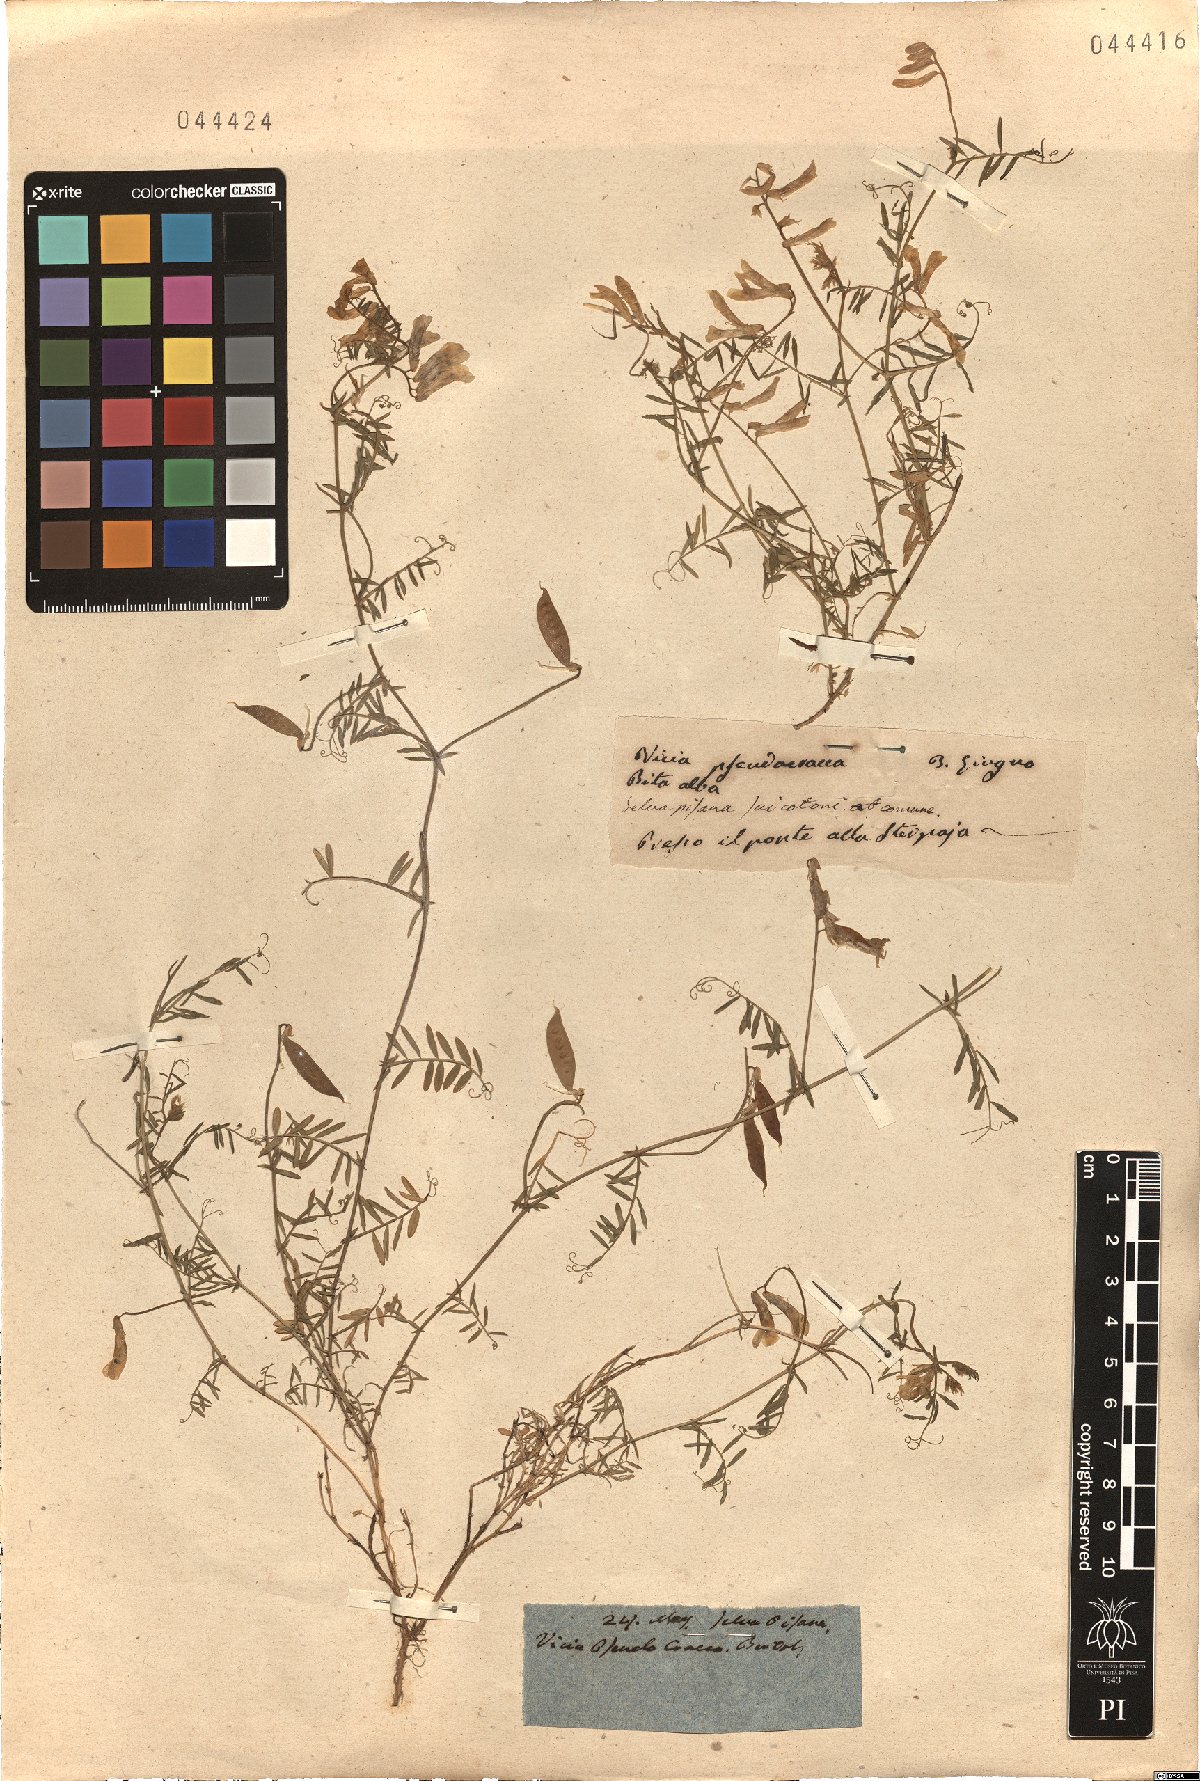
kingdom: Plantae
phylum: Tracheophyta
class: Magnoliopsida
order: Fabales
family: Fabaceae
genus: Vicia
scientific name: Vicia villosa
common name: Fodder vetch
